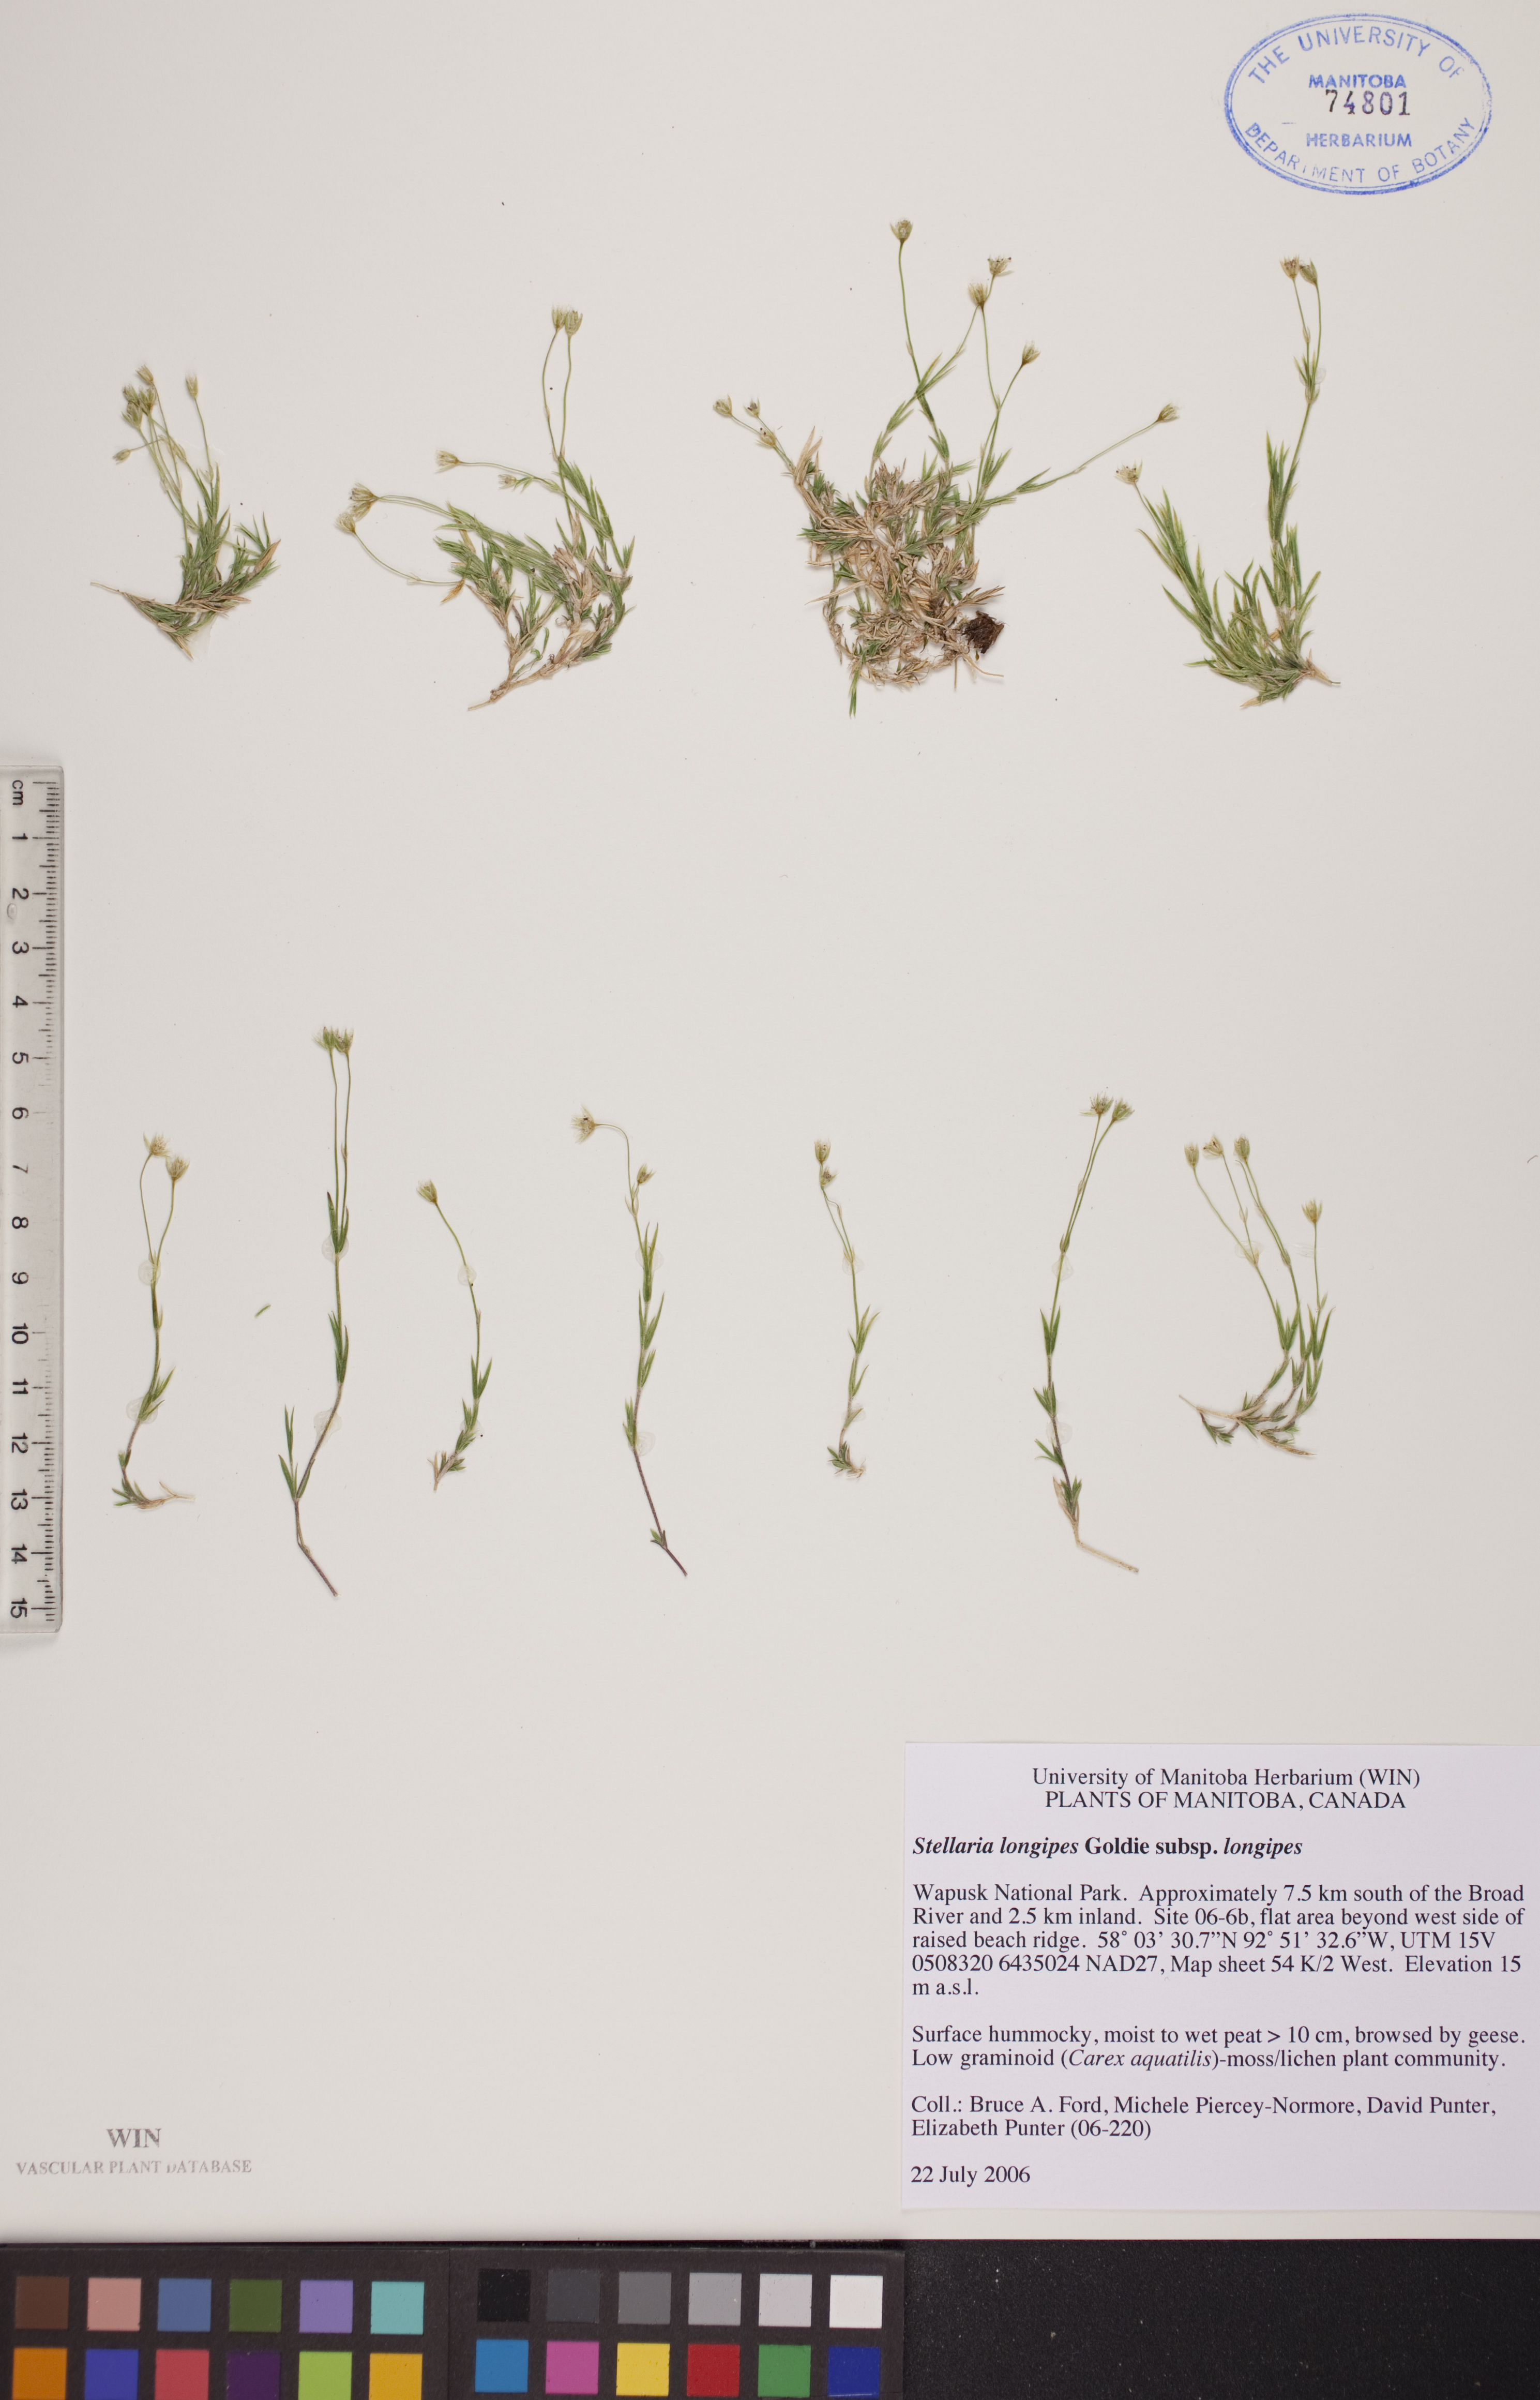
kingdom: Plantae
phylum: Tracheophyta
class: Magnoliopsida
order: Caryophyllales
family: Caryophyllaceae
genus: Stellaria
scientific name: Stellaria longipes
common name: Goldie's starwort
